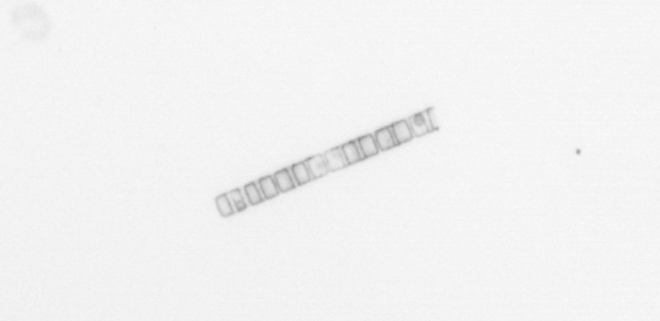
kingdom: Chromista
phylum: Ochrophyta
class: Bacillariophyceae
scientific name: Bacillariophyceae
